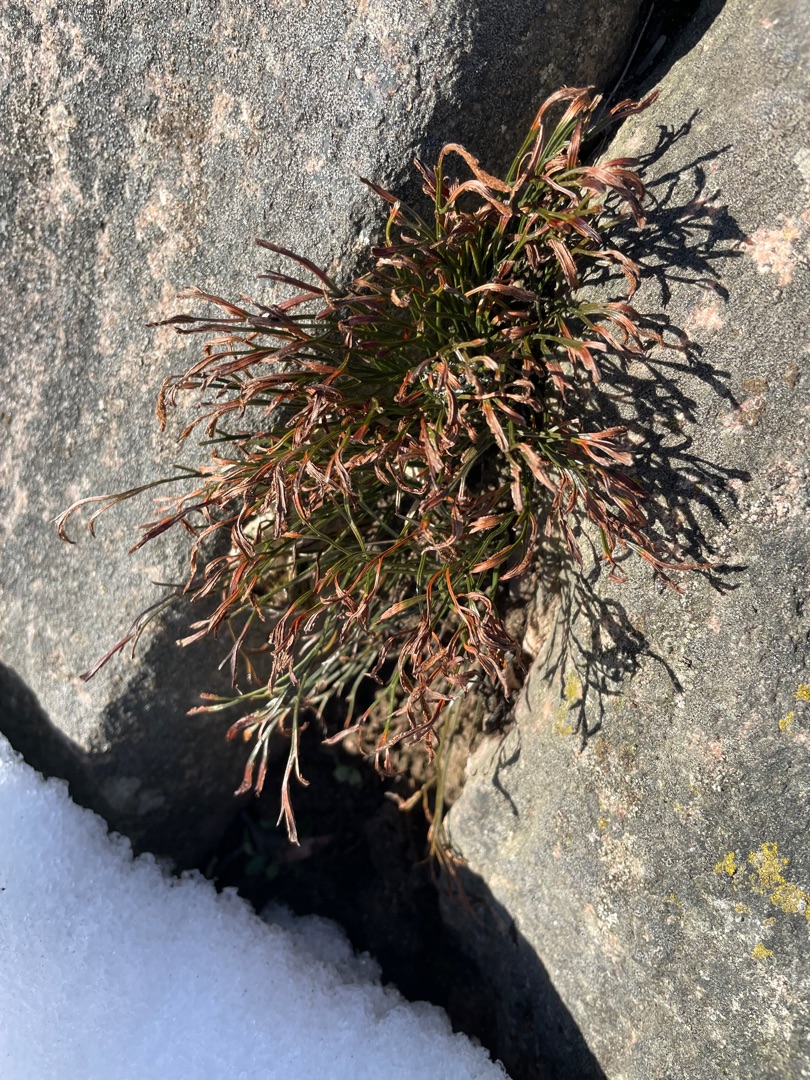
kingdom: Plantae
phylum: Tracheophyta
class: Polypodiopsida
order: Polypodiales
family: Aspleniaceae
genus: Asplenium
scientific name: Asplenium septentrionale
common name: Nordisk radeløv
